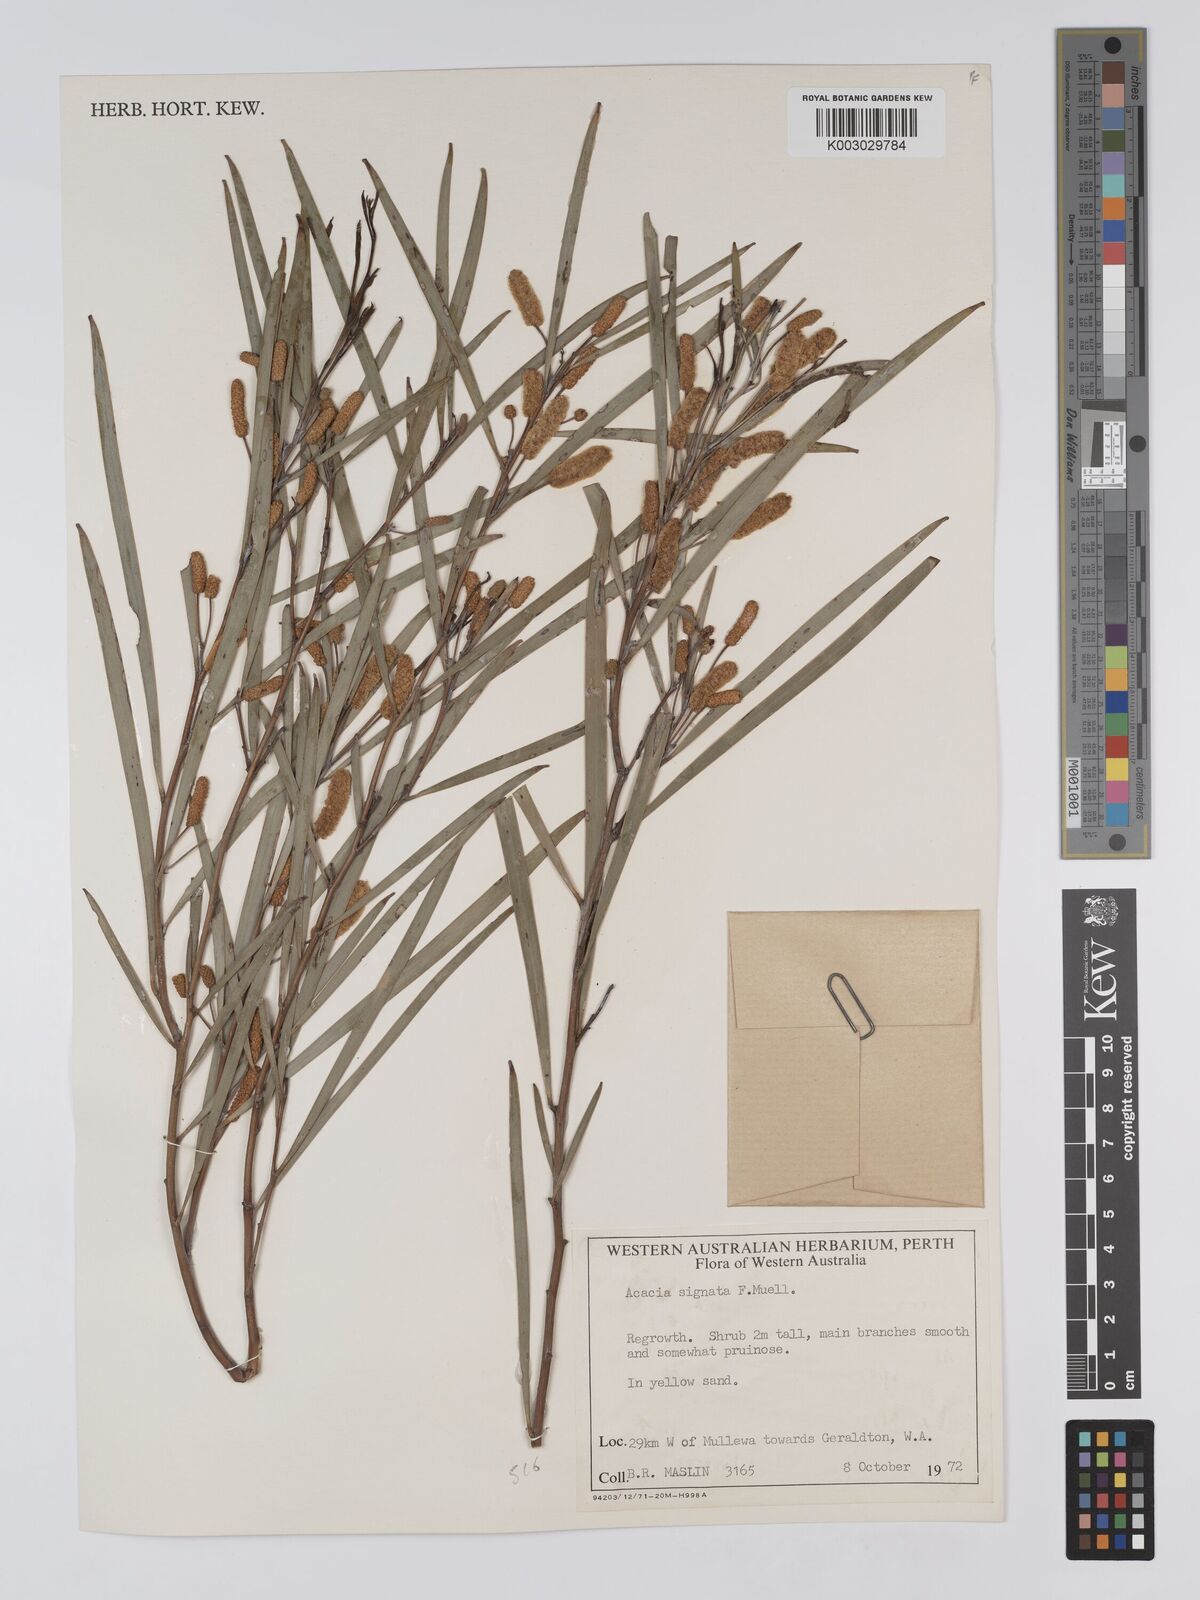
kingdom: Plantae
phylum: Tracheophyta
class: Magnoliopsida
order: Fabales
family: Fabaceae
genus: Acacia
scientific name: Acacia signata
